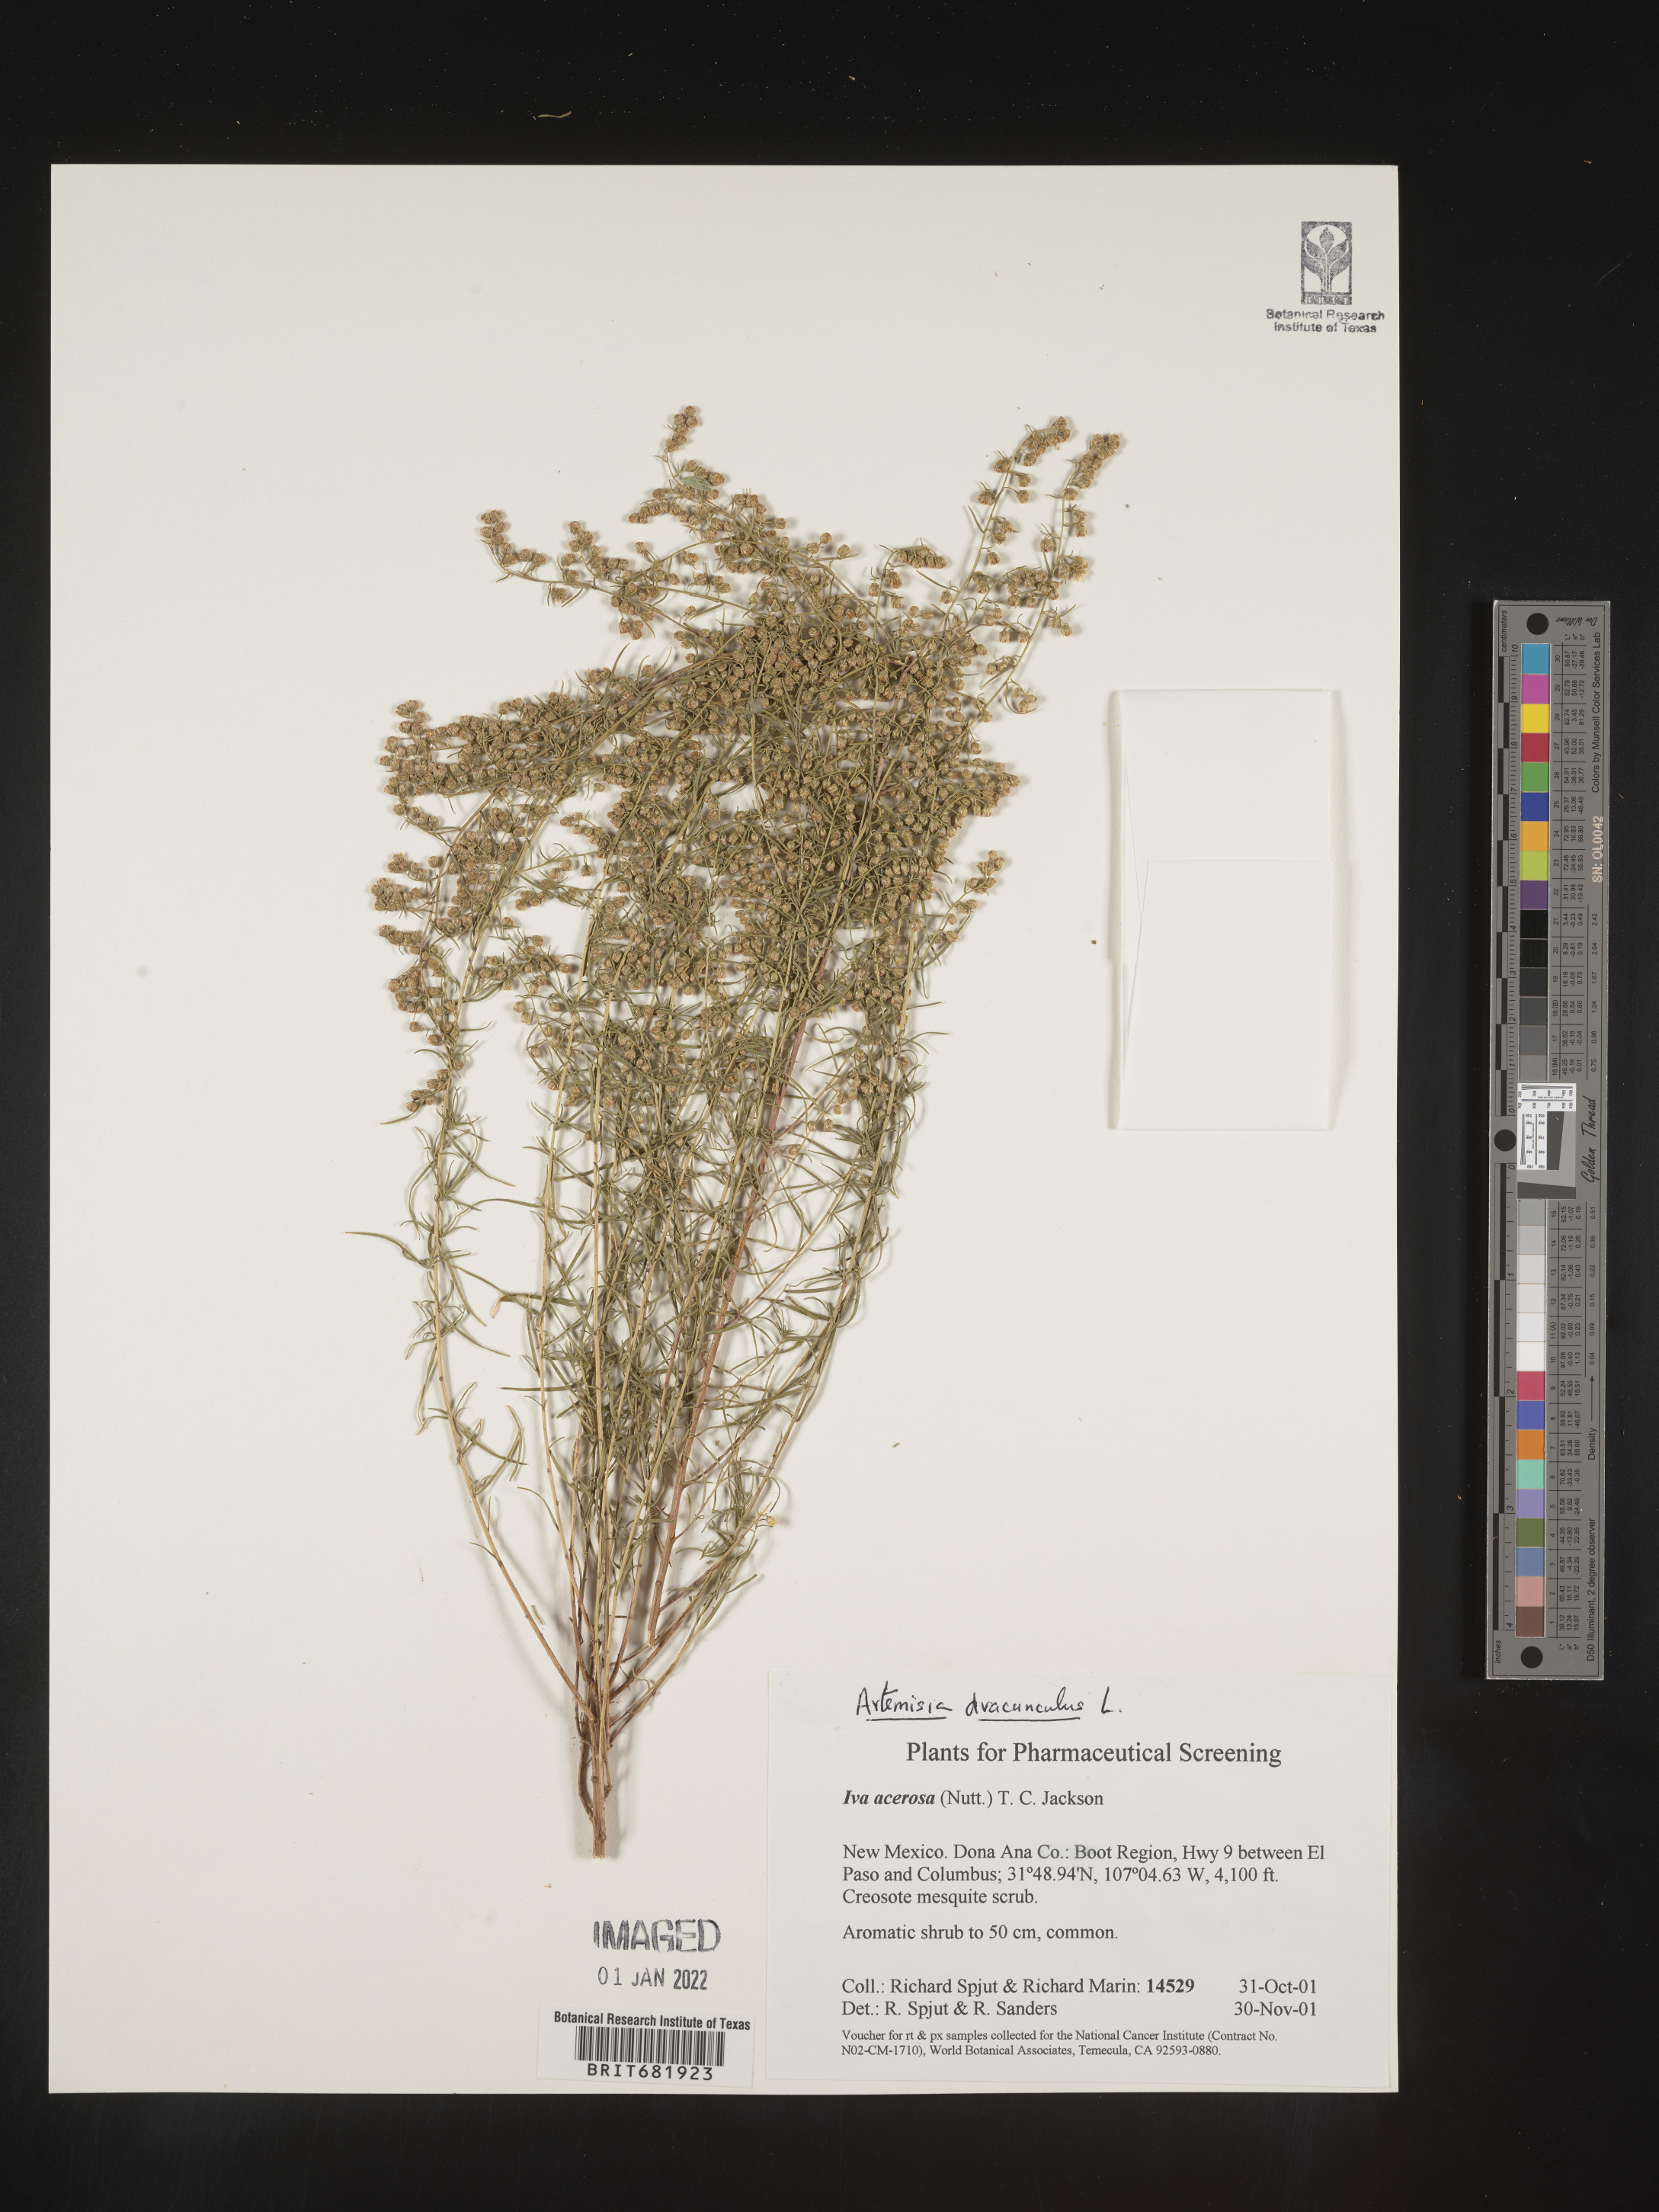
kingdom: Plantae
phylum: Tracheophyta
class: Magnoliopsida
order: Asterales
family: Asteraceae
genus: Artemisia
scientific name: Artemisia dracunculus
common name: Tarragon
